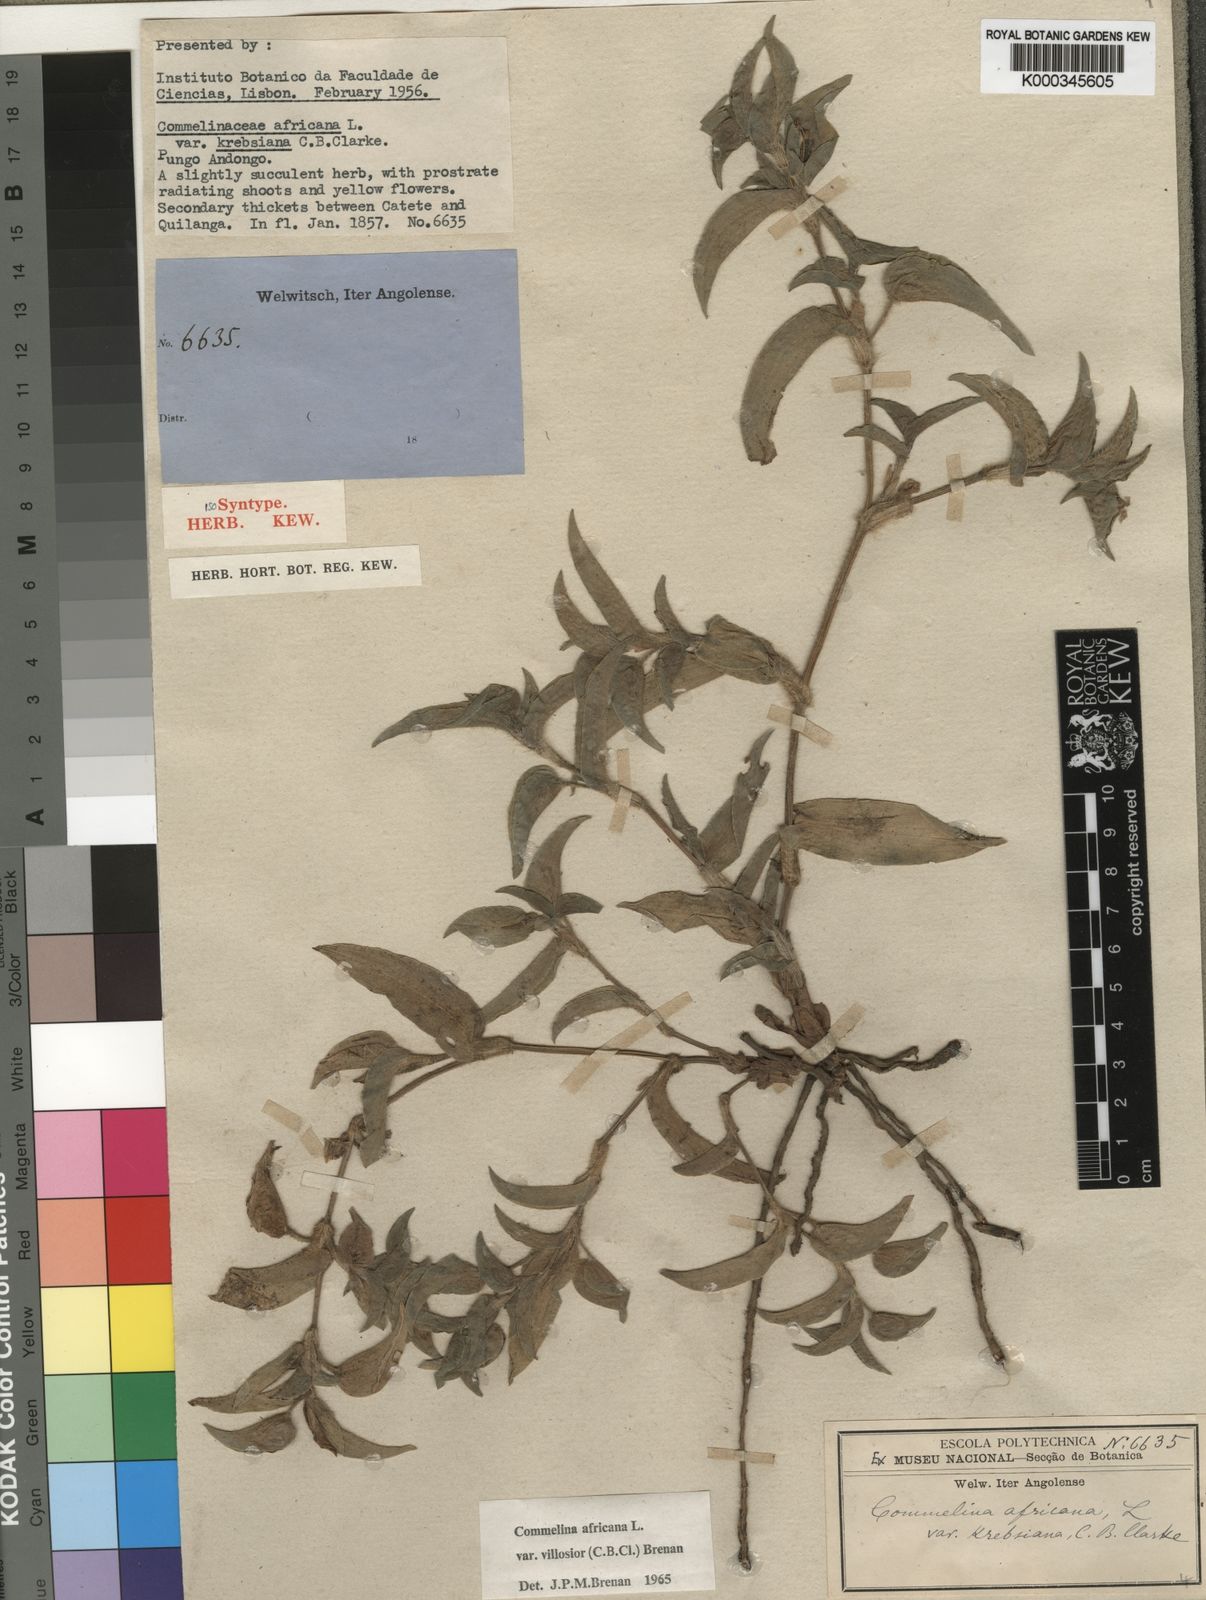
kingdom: Plantae
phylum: Tracheophyta
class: Liliopsida
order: Commelinales
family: Commelinaceae
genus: Commelina
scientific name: Commelina africana
